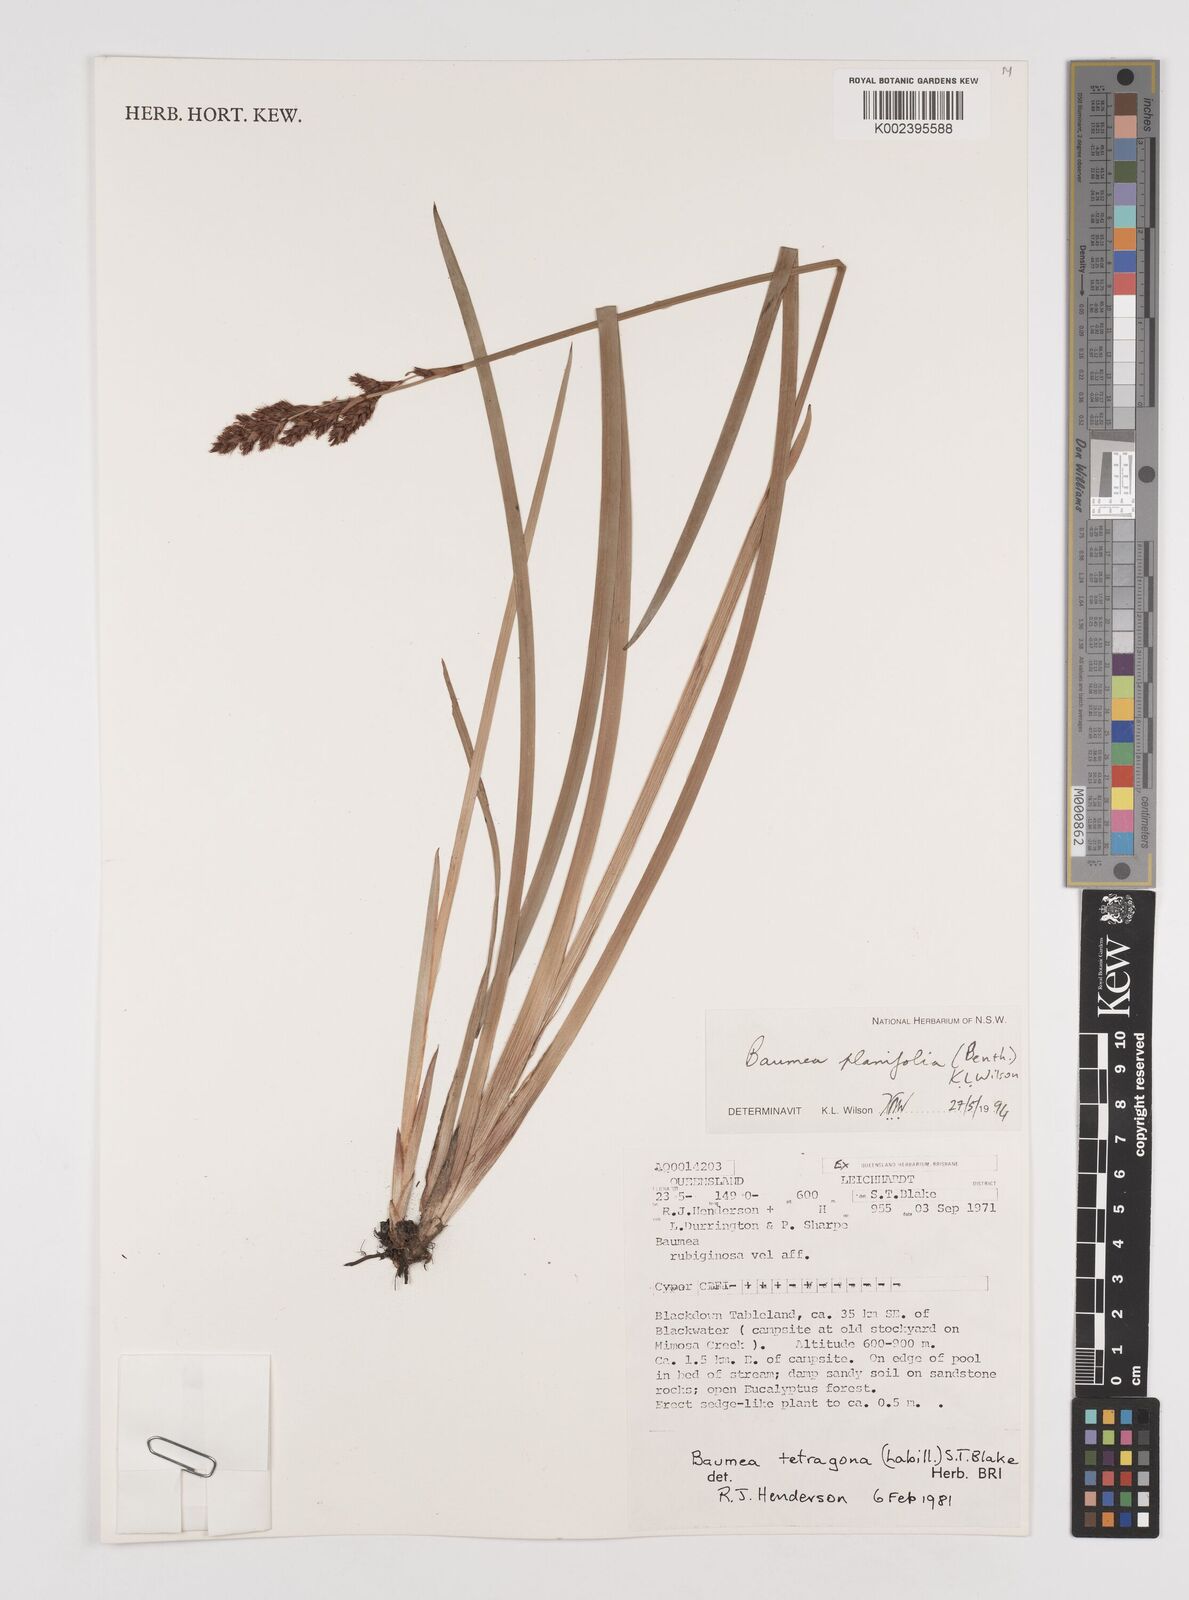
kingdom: Plantae
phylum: Tracheophyta
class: Liliopsida
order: Poales
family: Cyperaceae
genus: Machaerina
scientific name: Machaerina planifolia
